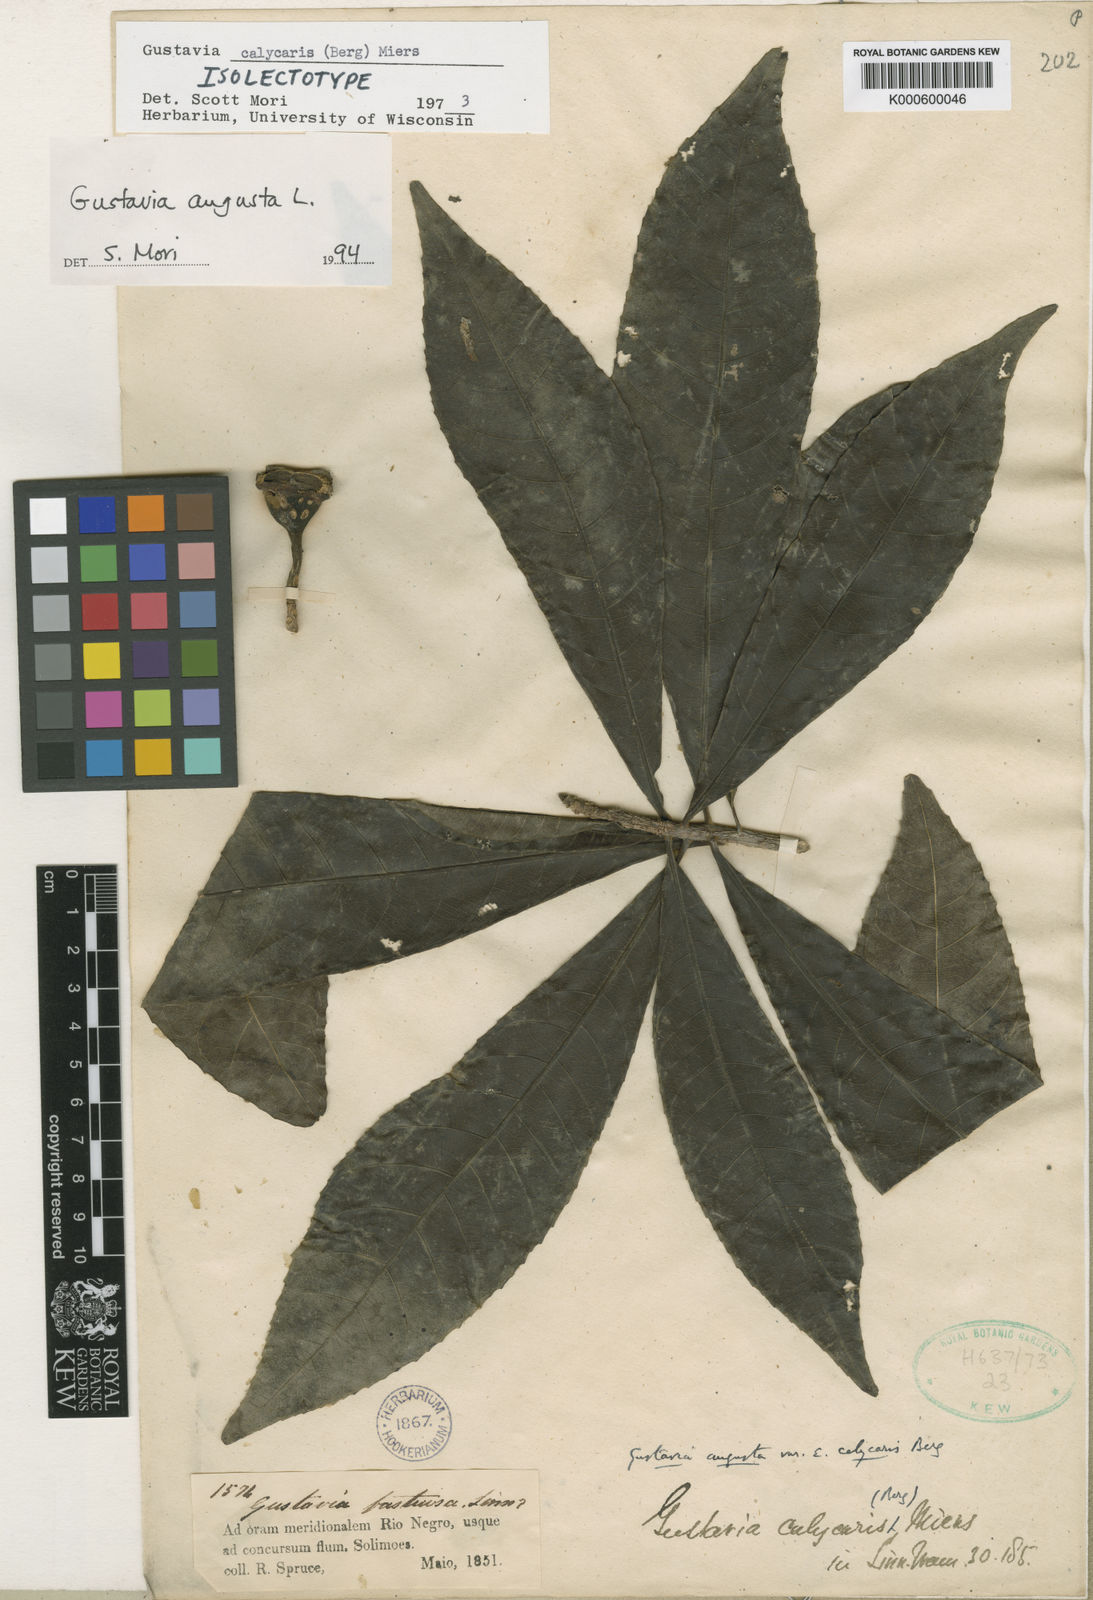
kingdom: Plantae
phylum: Tracheophyta
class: Magnoliopsida
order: Ericales
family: Lecythidaceae
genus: Gustavia
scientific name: Gustavia augusta
